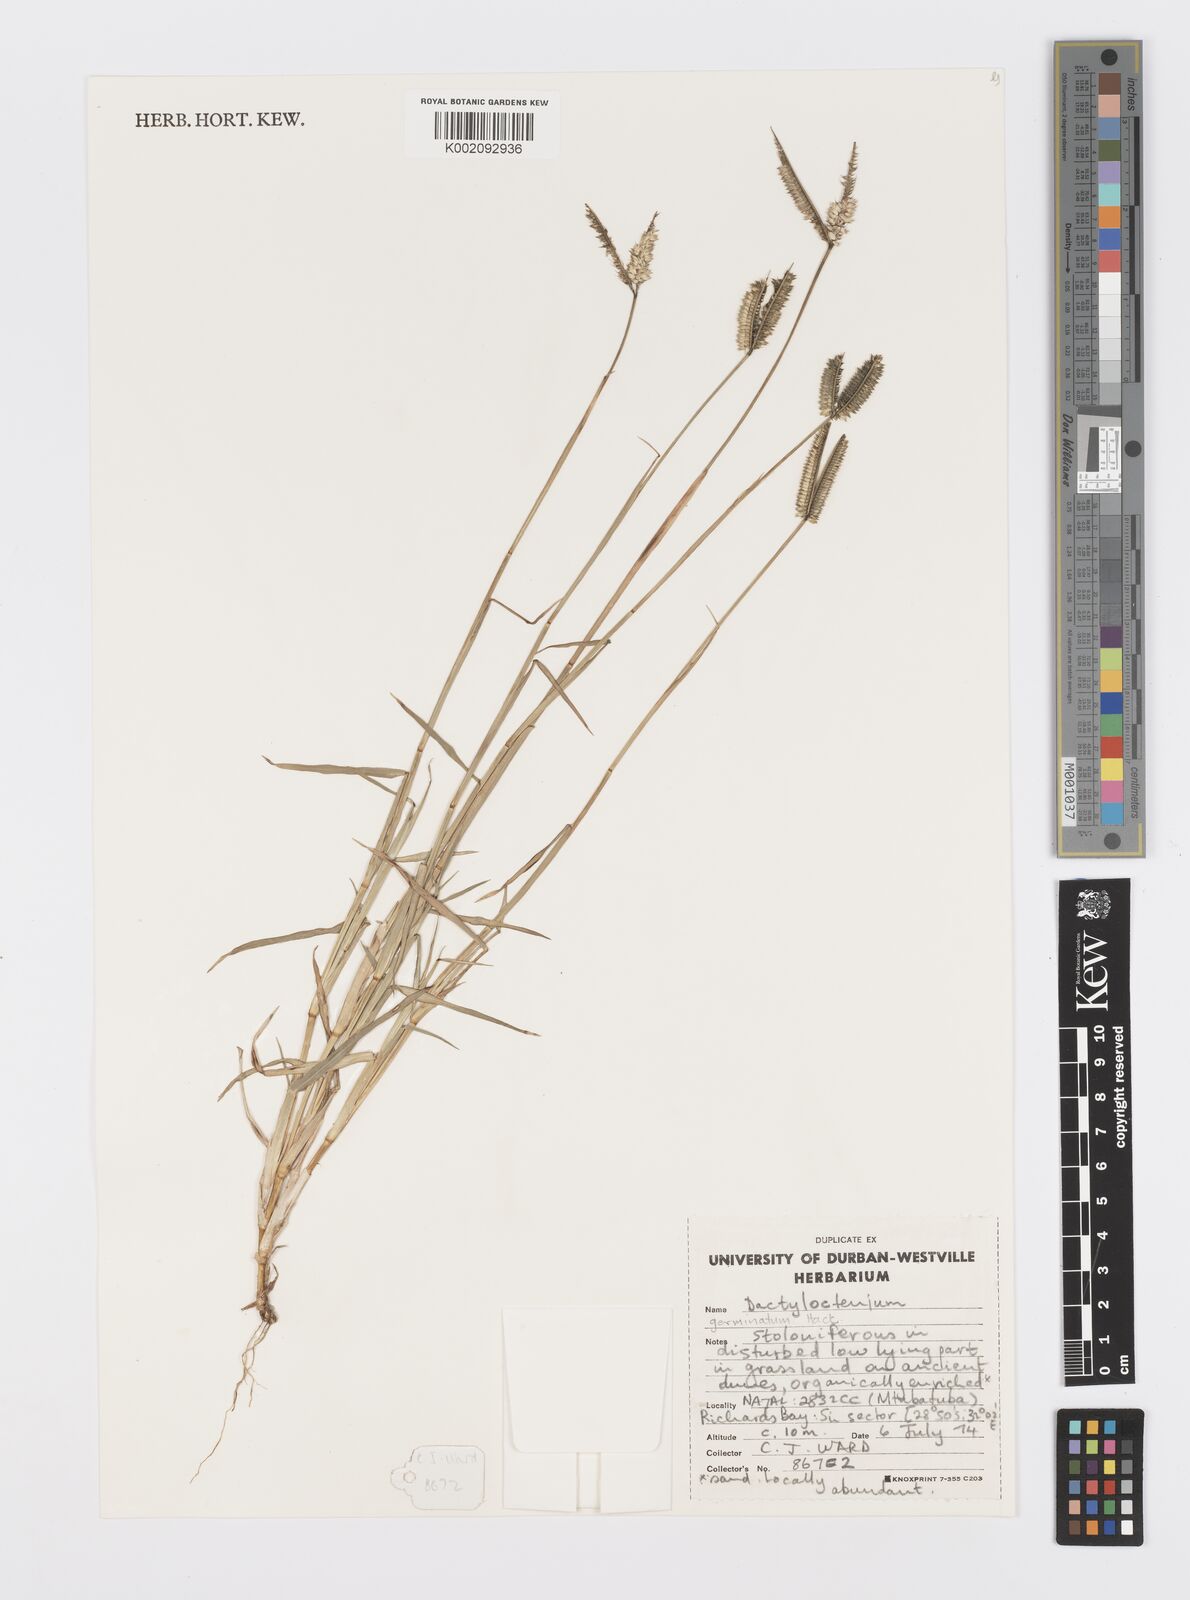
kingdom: Plantae
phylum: Tracheophyta
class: Liliopsida
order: Poales
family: Poaceae
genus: Dactyloctenium
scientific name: Dactyloctenium geminatum
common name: Crowsfoot grass
